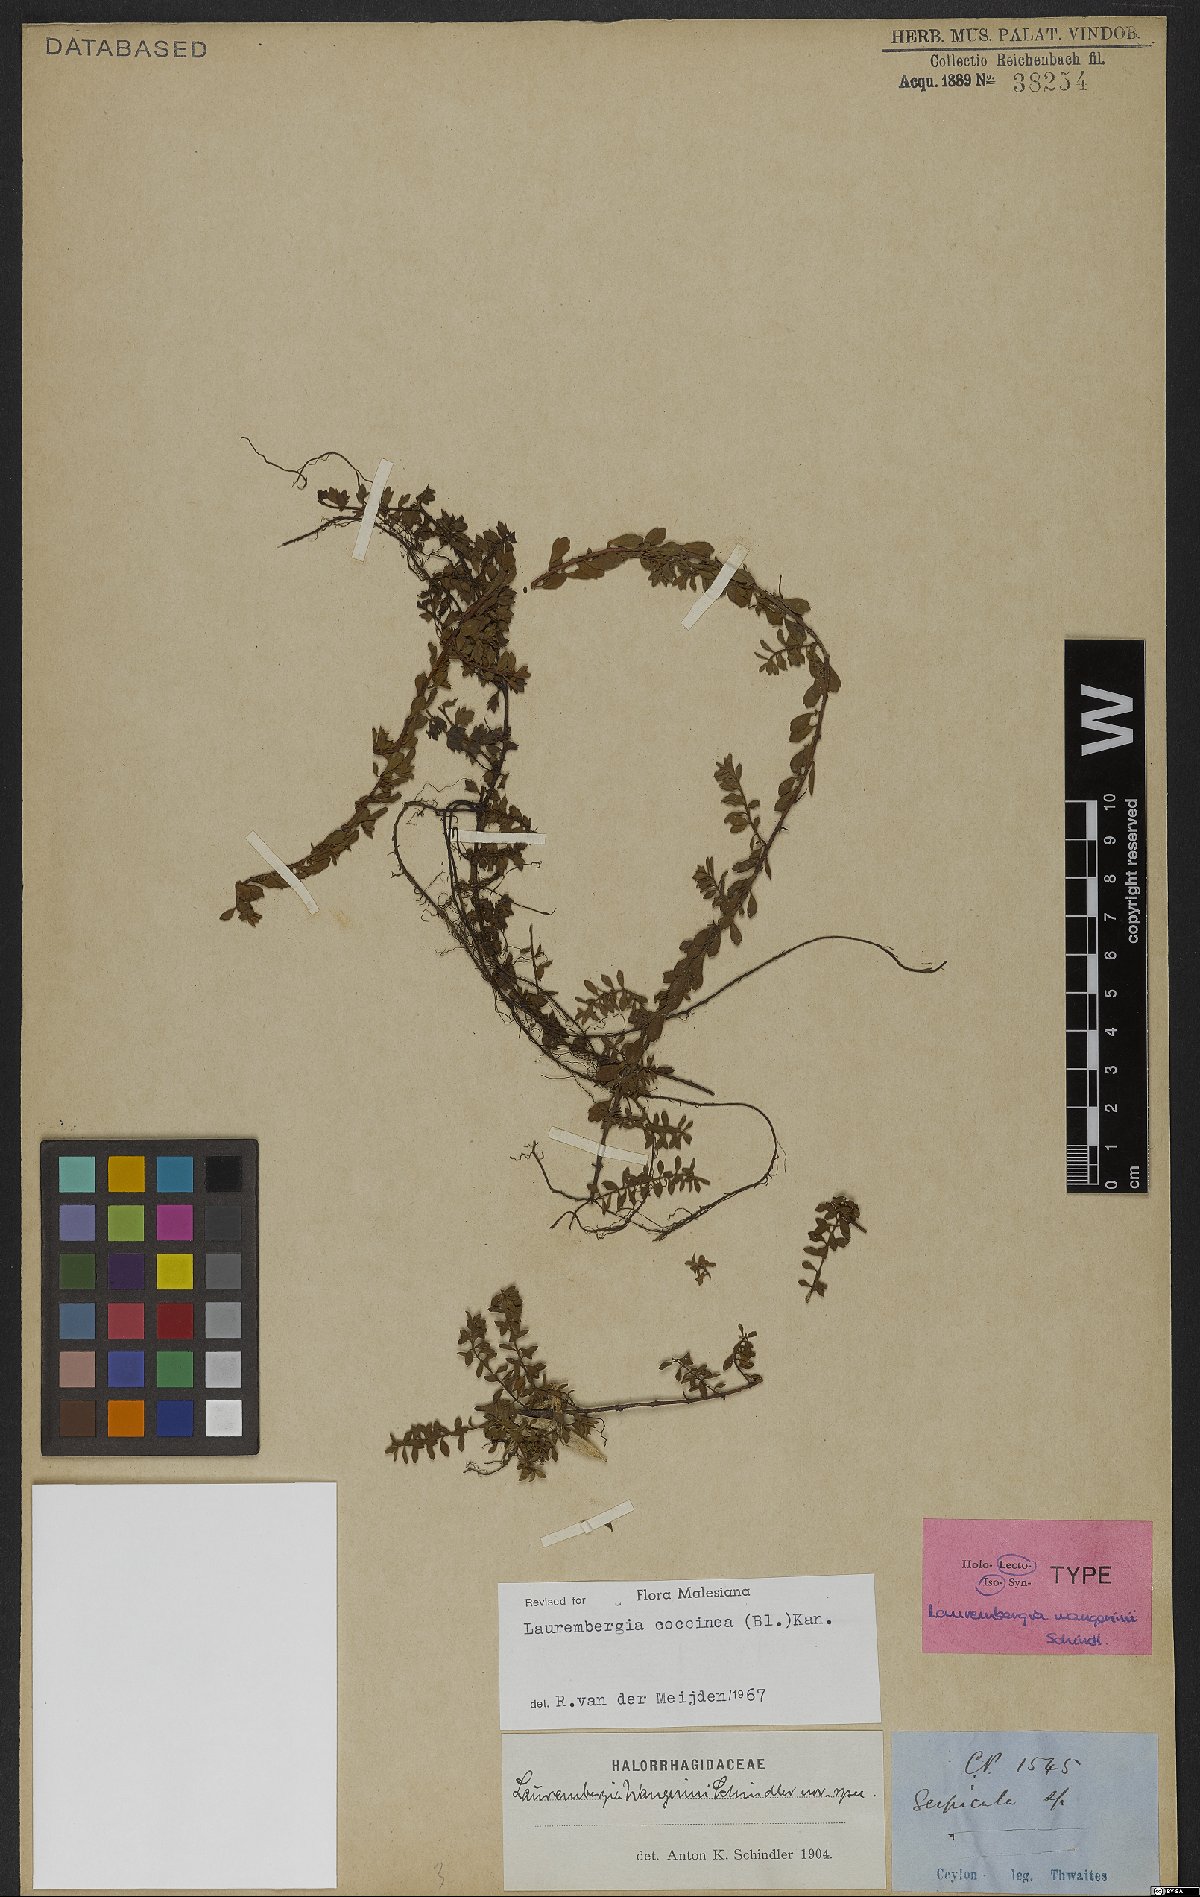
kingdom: Plantae
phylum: Tracheophyta
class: Magnoliopsida
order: Saxifragales
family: Haloragaceae
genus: Laurembergia
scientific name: Laurembergia coccinea
